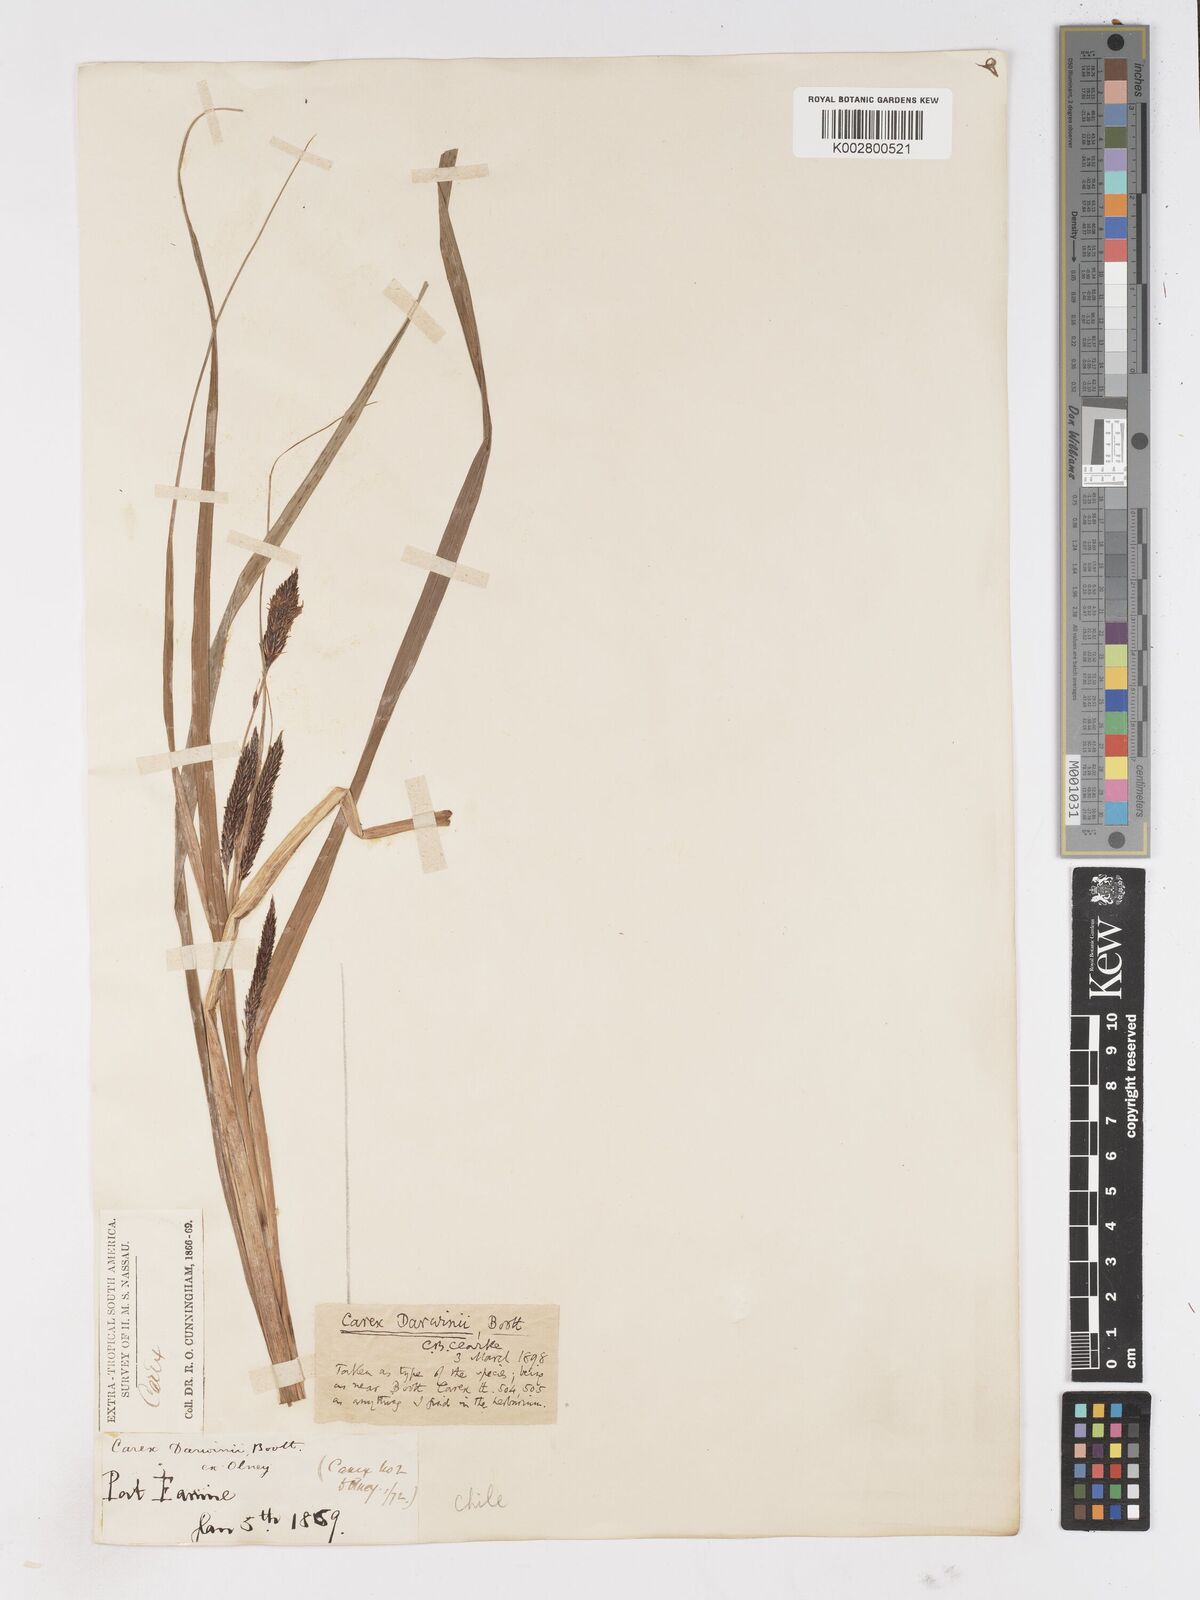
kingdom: Plantae
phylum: Tracheophyta
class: Liliopsida
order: Poales
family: Cyperaceae
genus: Carex
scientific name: Carex darwinii
